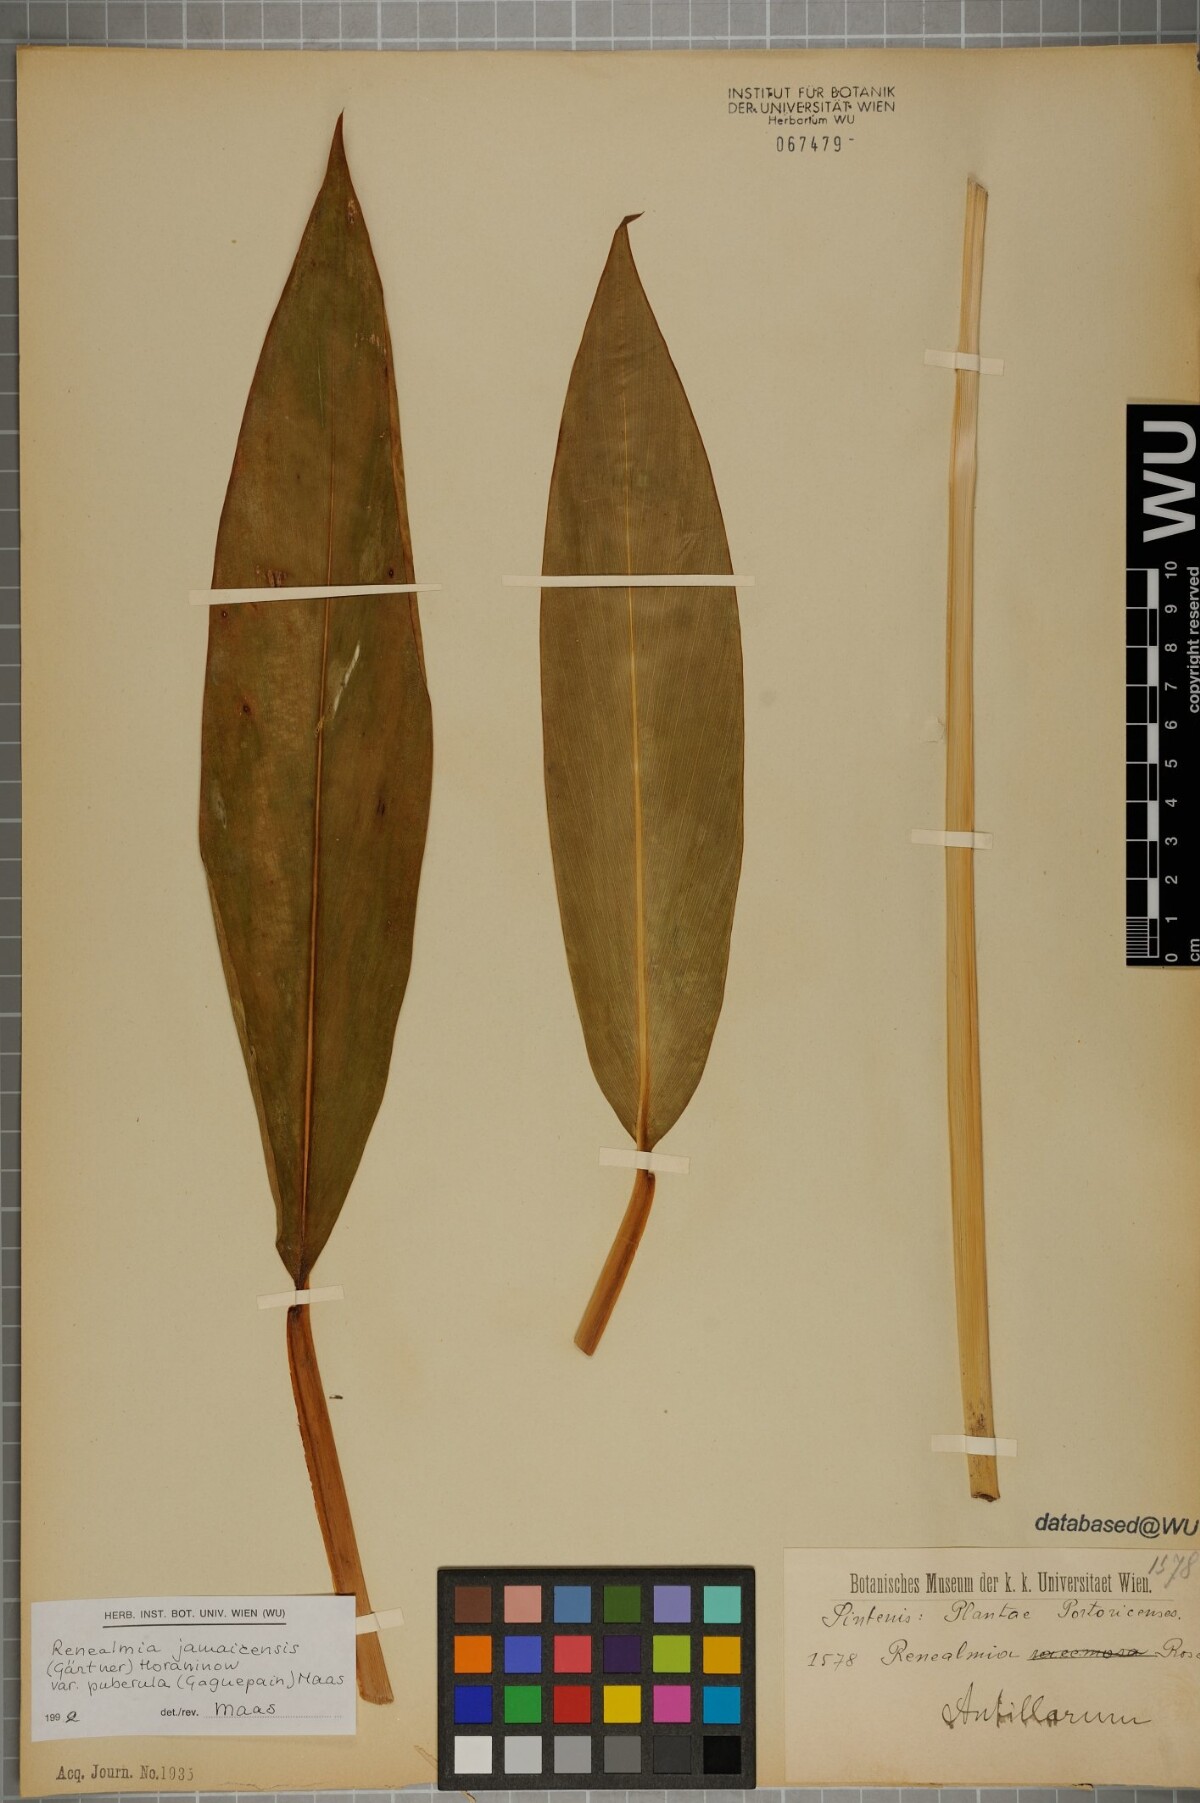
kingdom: Plantae
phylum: Tracheophyta
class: Liliopsida
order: Zingiberales
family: Zingiberaceae
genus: Renealmia
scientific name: Renealmia jamaicensis
